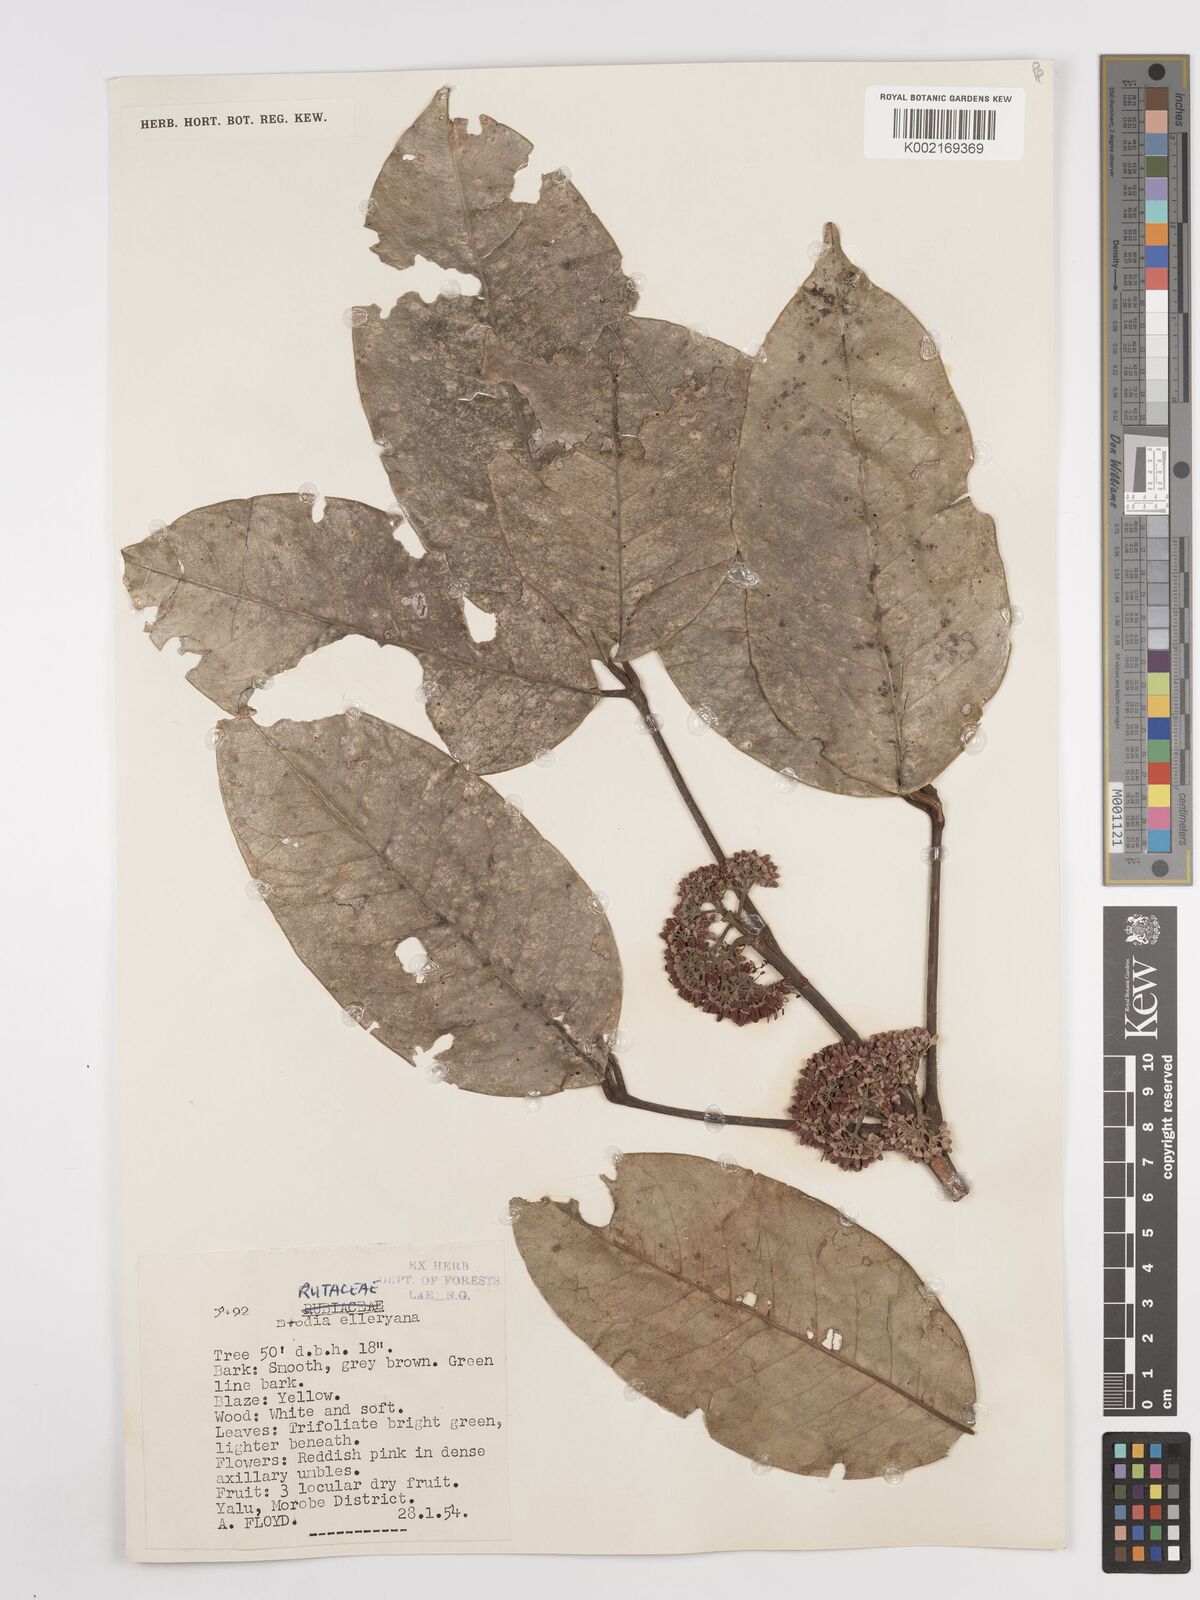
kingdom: Plantae
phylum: Tracheophyta
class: Magnoliopsida
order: Sapindales
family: Rutaceae
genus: Melicope
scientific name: Melicope elleryana
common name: Pink euodia
